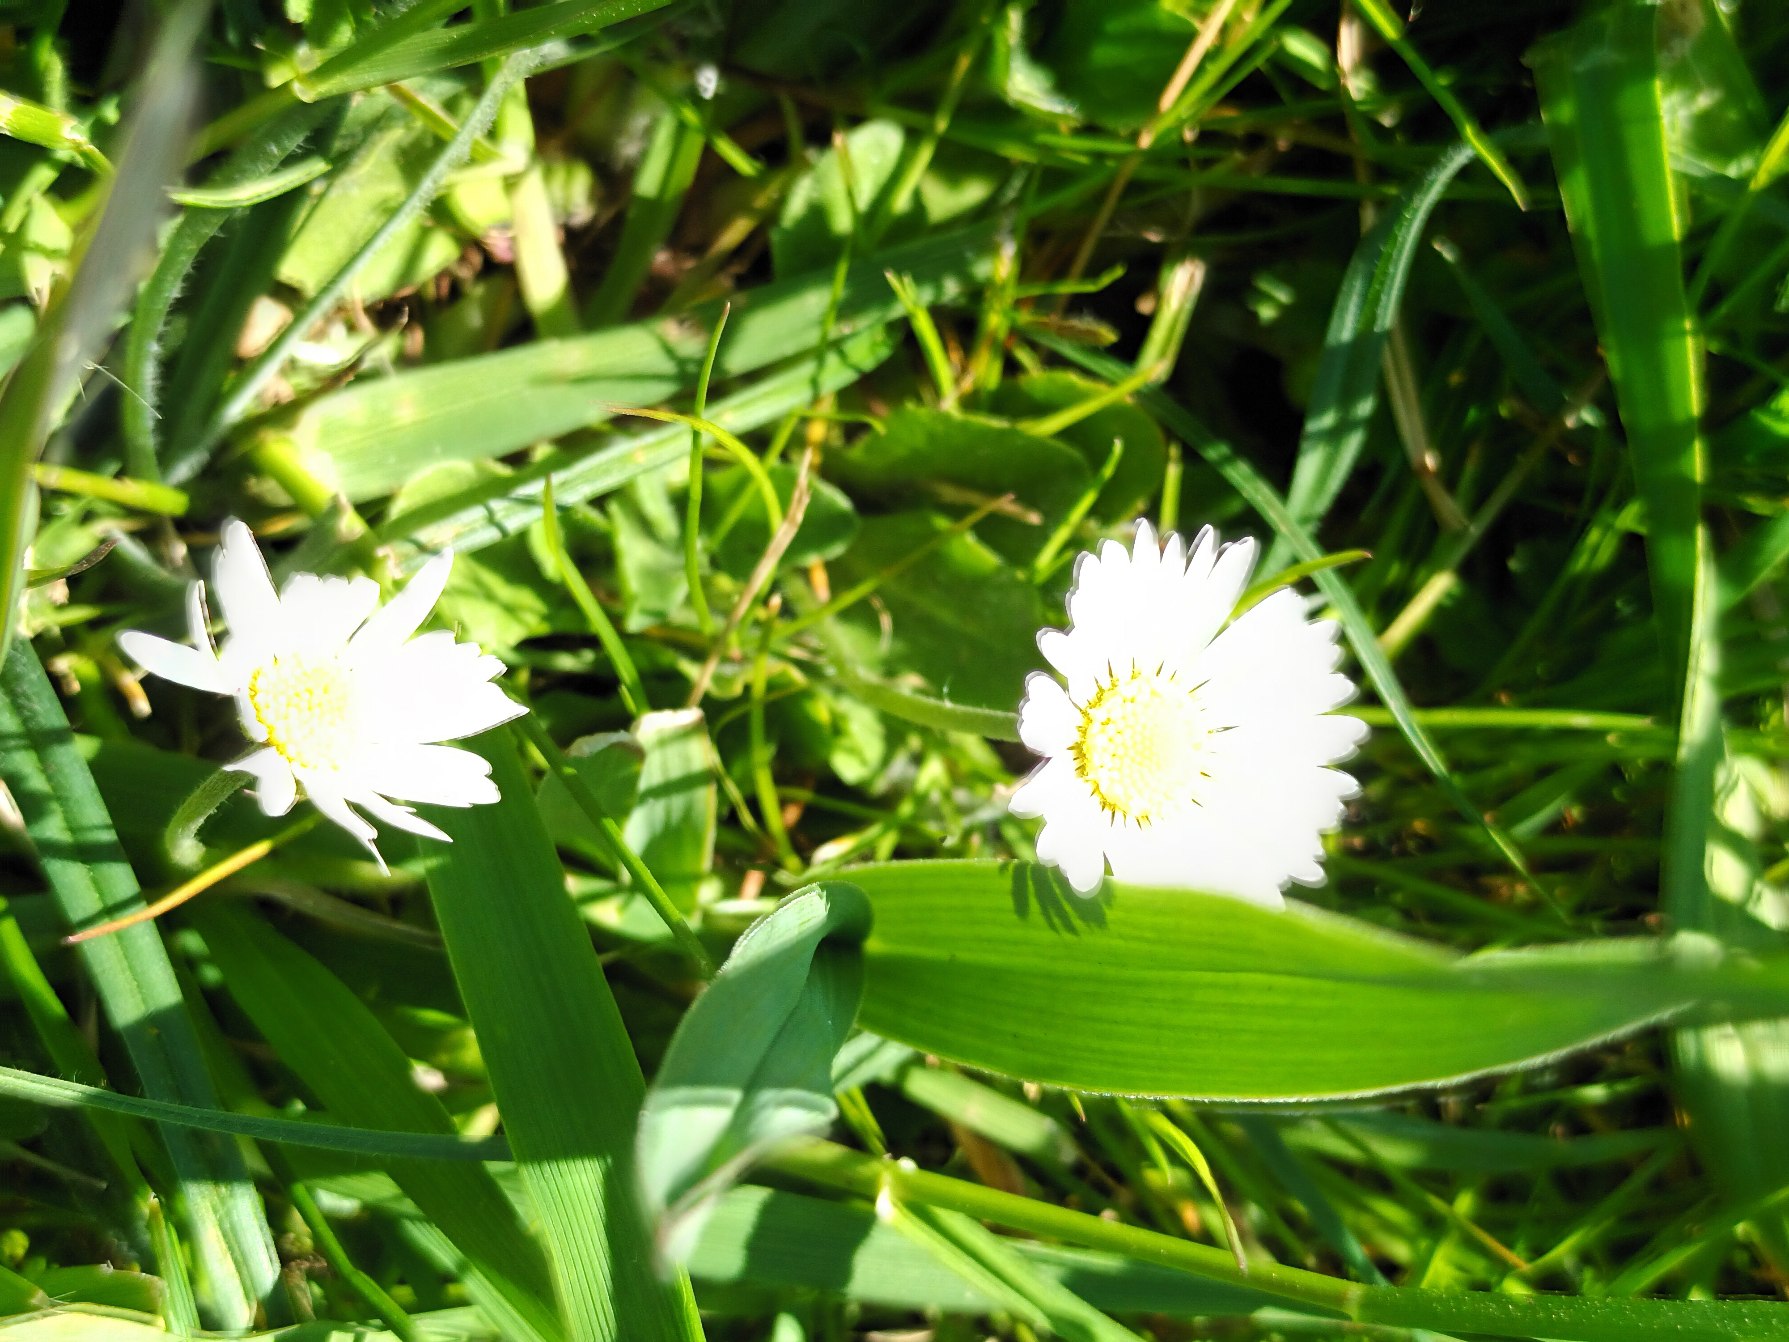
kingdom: Plantae
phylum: Tracheophyta
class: Magnoliopsida
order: Asterales
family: Asteraceae
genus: Bellis
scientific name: Bellis perennis
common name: Tusindfryd
